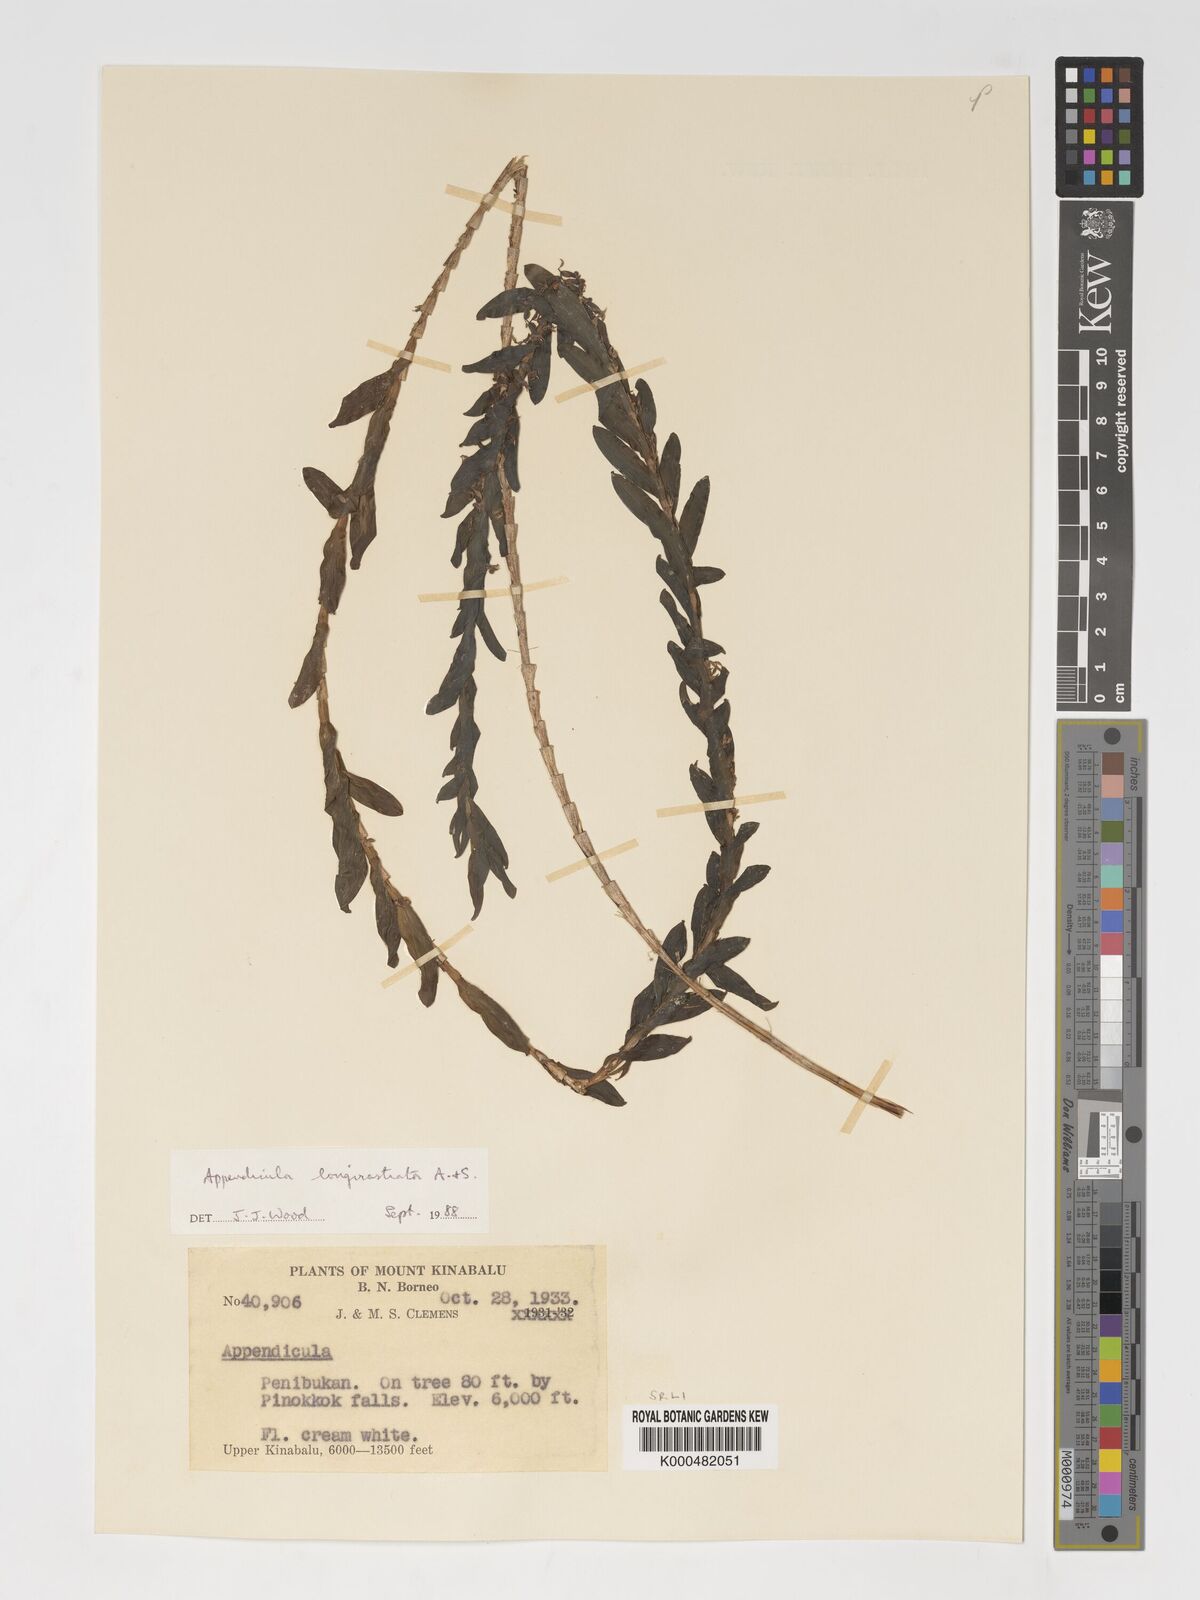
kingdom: Plantae
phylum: Tracheophyta
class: Liliopsida
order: Asparagales
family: Orchidaceae
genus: Appendicula
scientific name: Appendicula longirostrata
